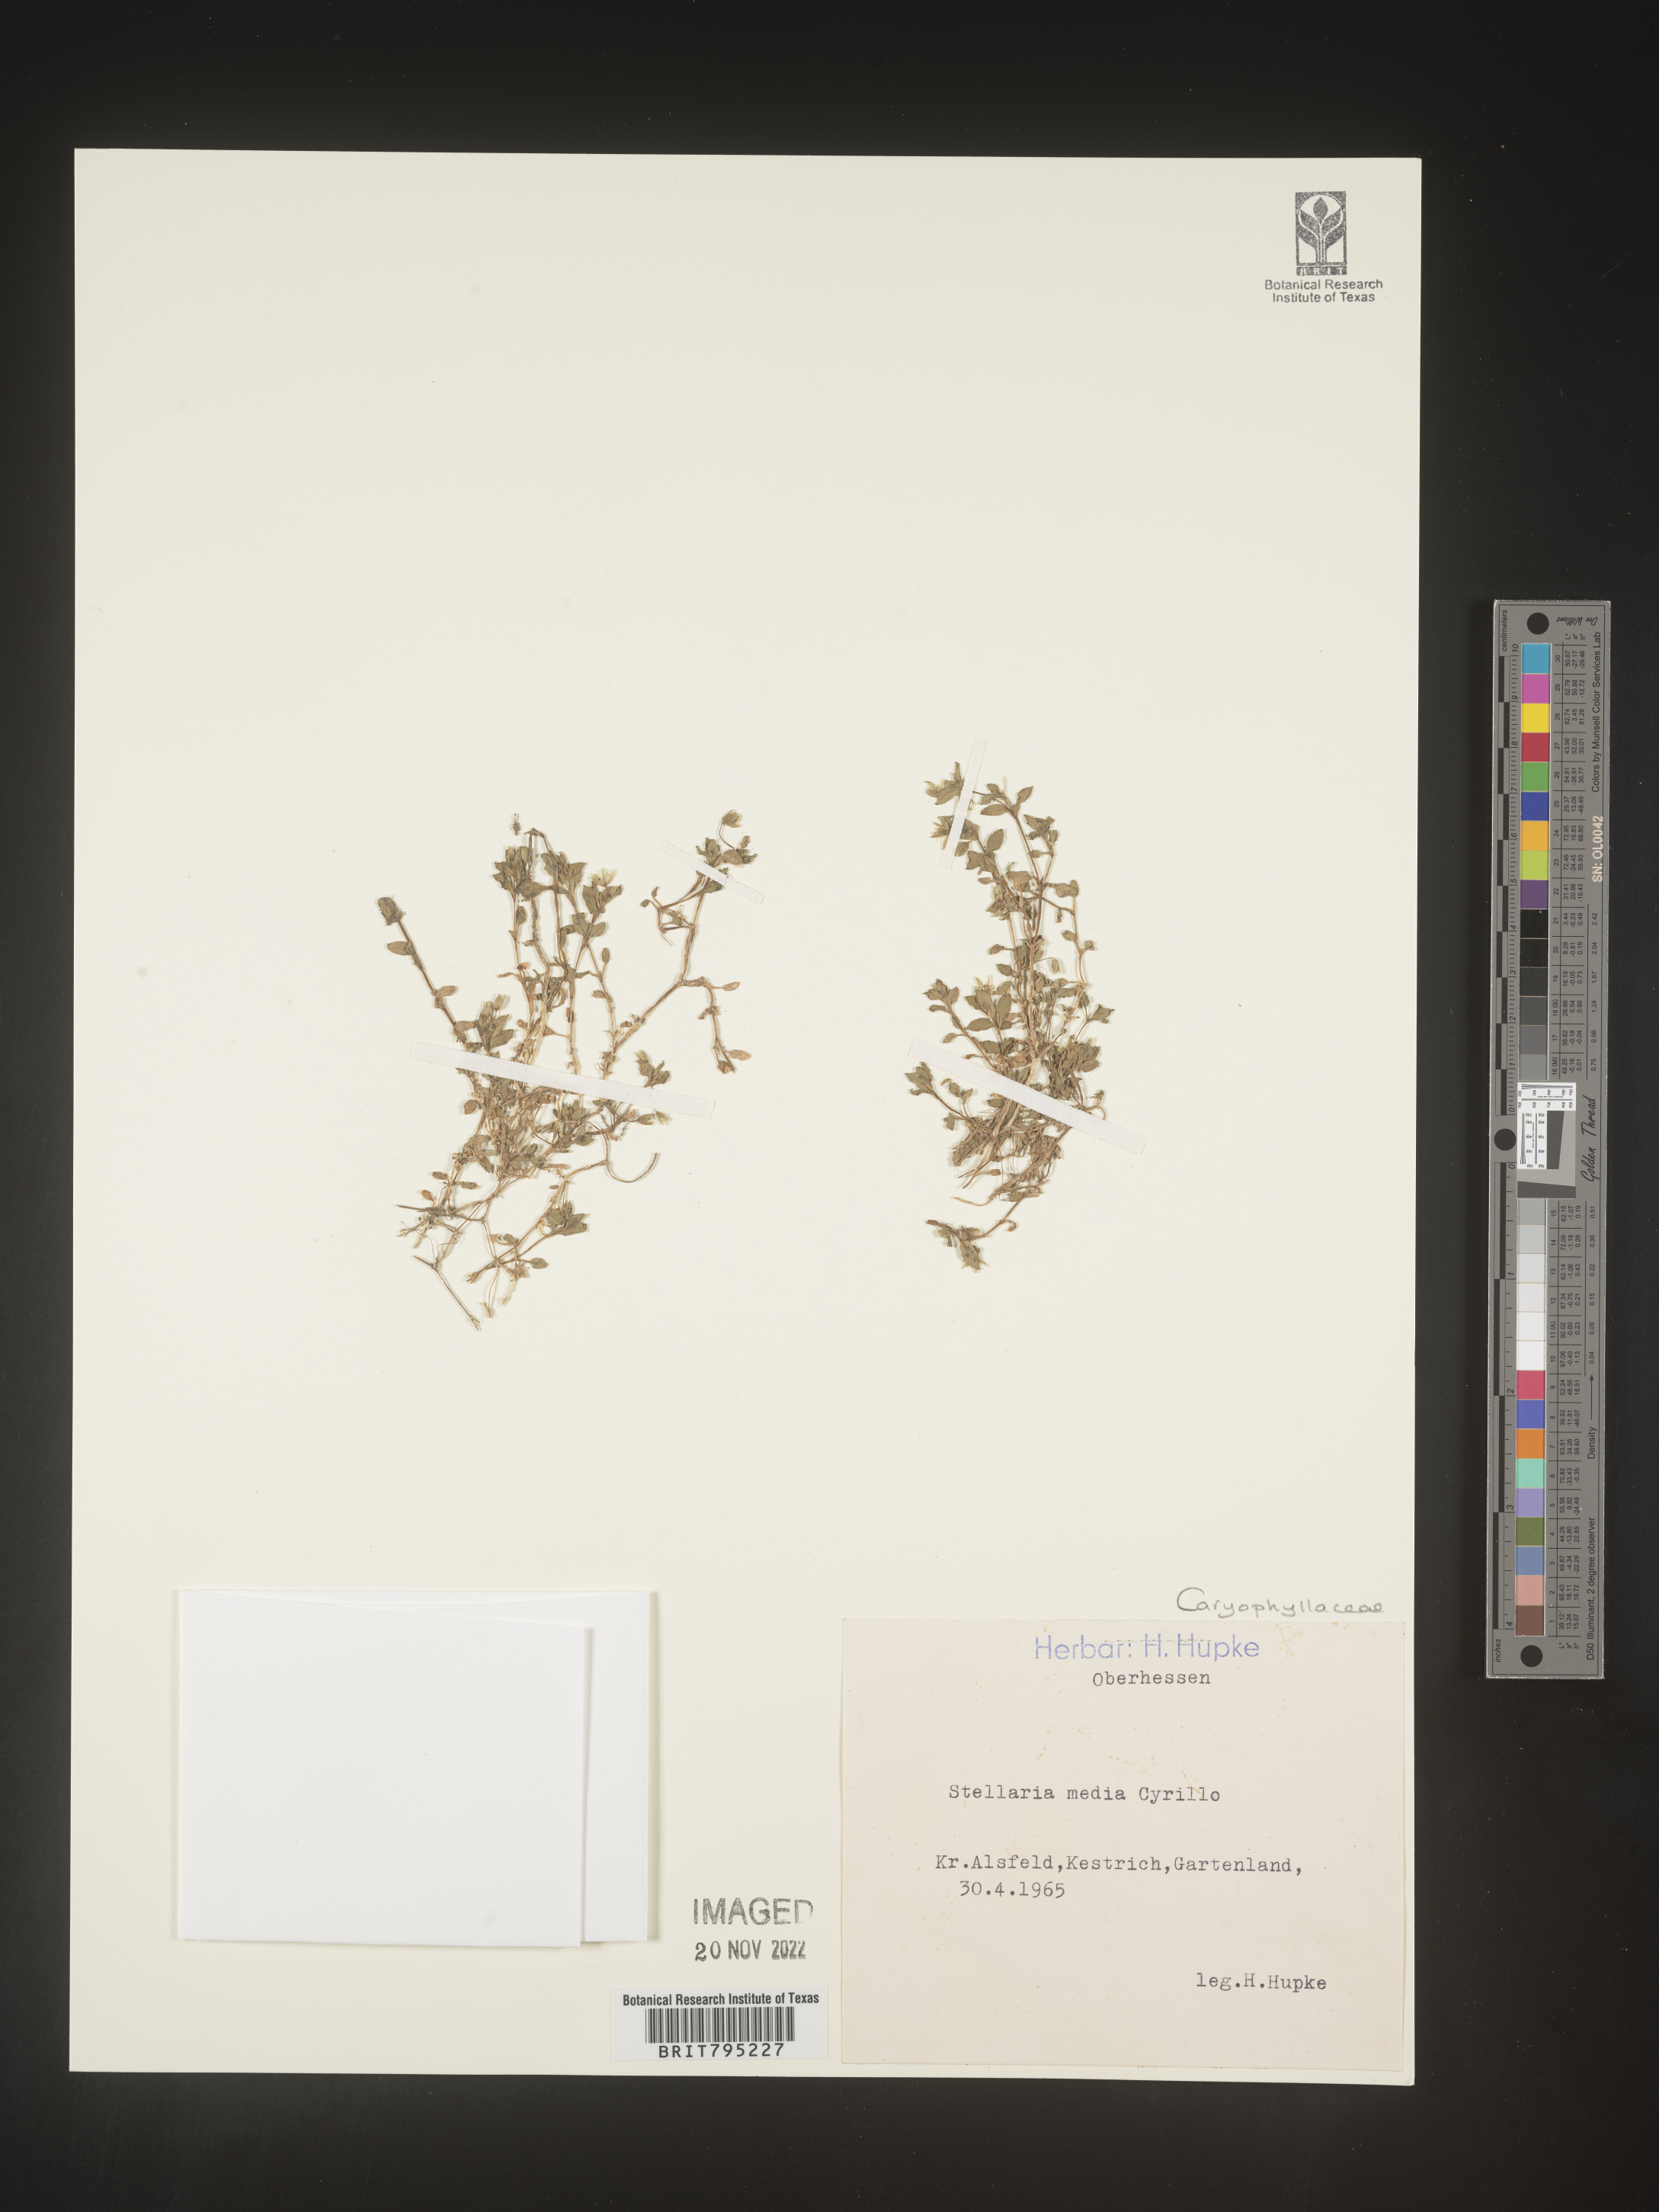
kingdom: Plantae
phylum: Tracheophyta
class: Magnoliopsida
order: Caryophyllales
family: Caryophyllaceae
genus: Stellaria
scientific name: Stellaria
